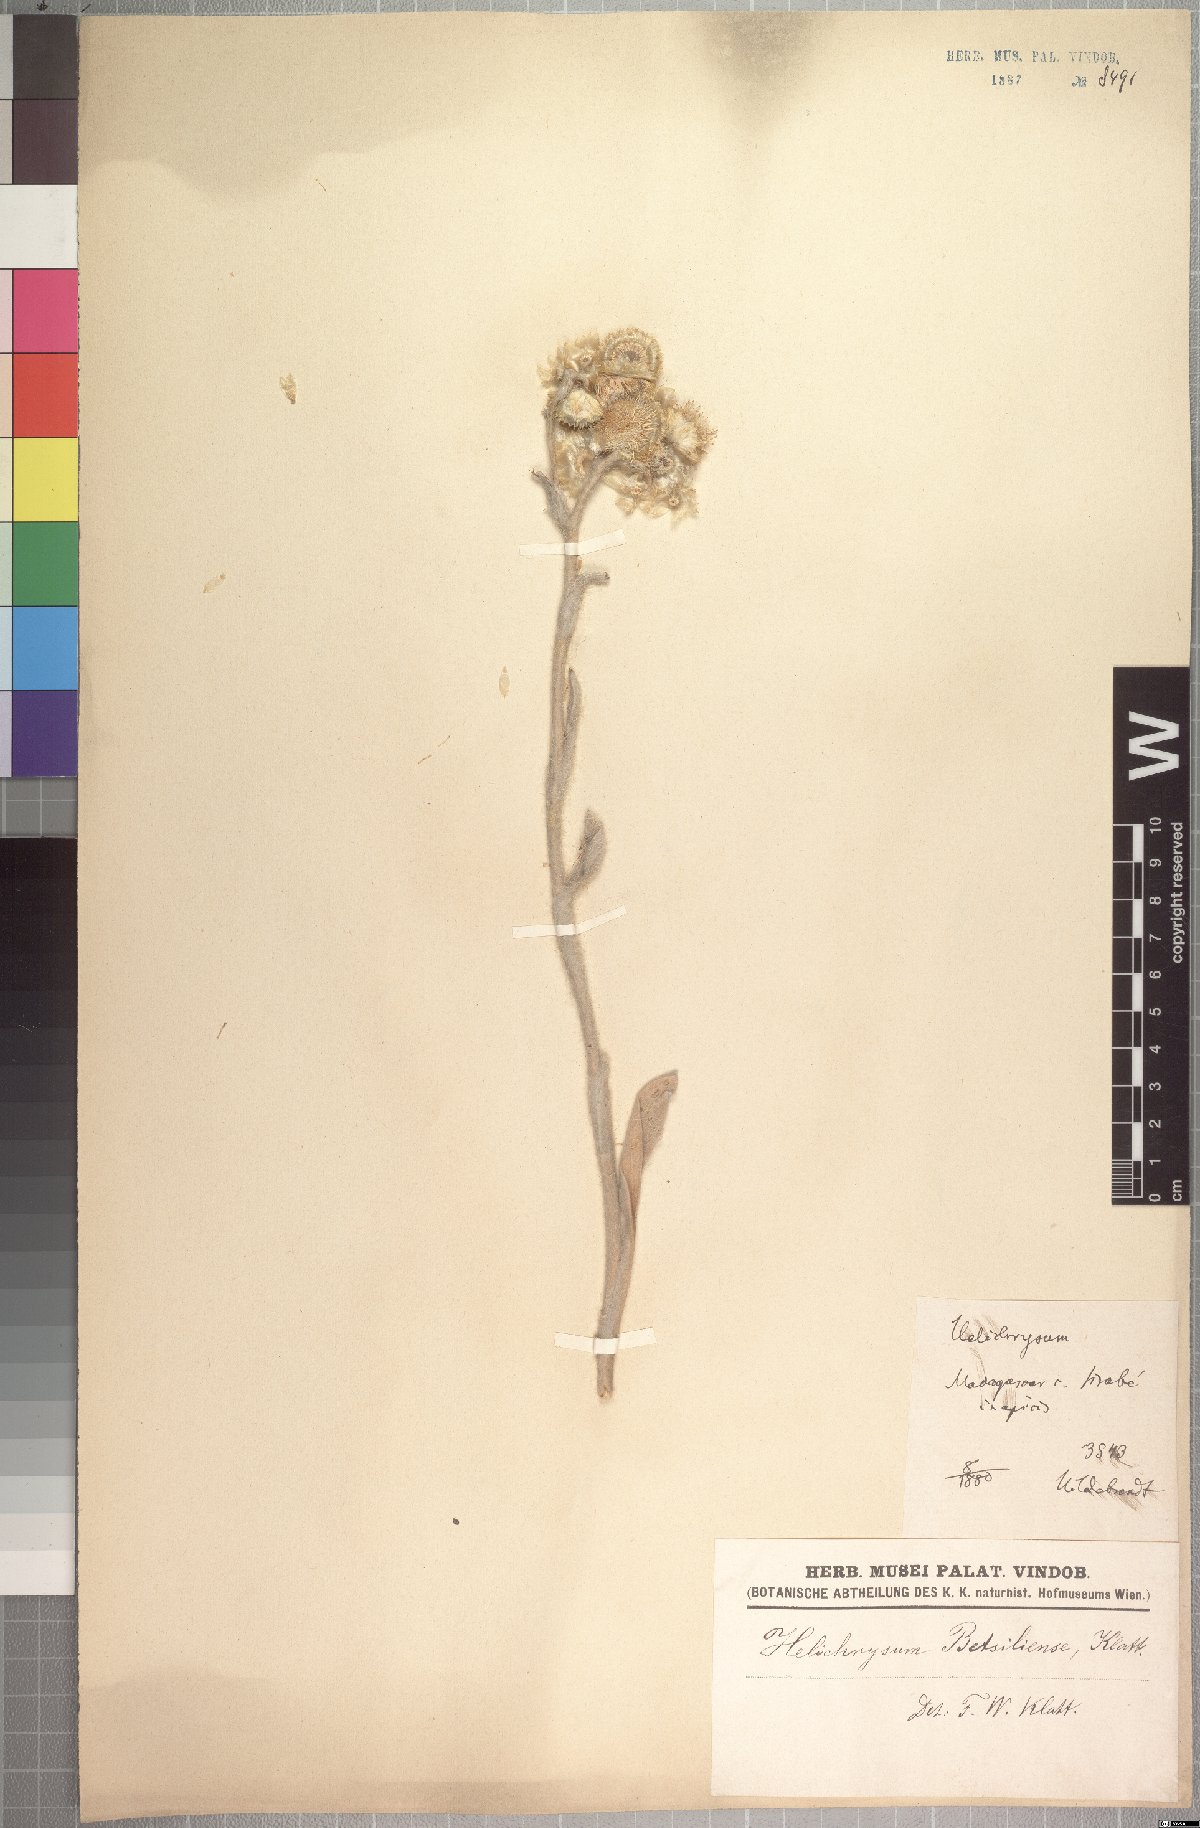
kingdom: Plantae
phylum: Tracheophyta
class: Magnoliopsida
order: Asterales
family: Asteraceae
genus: Helichrysum
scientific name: Helichrysum betsiliense
